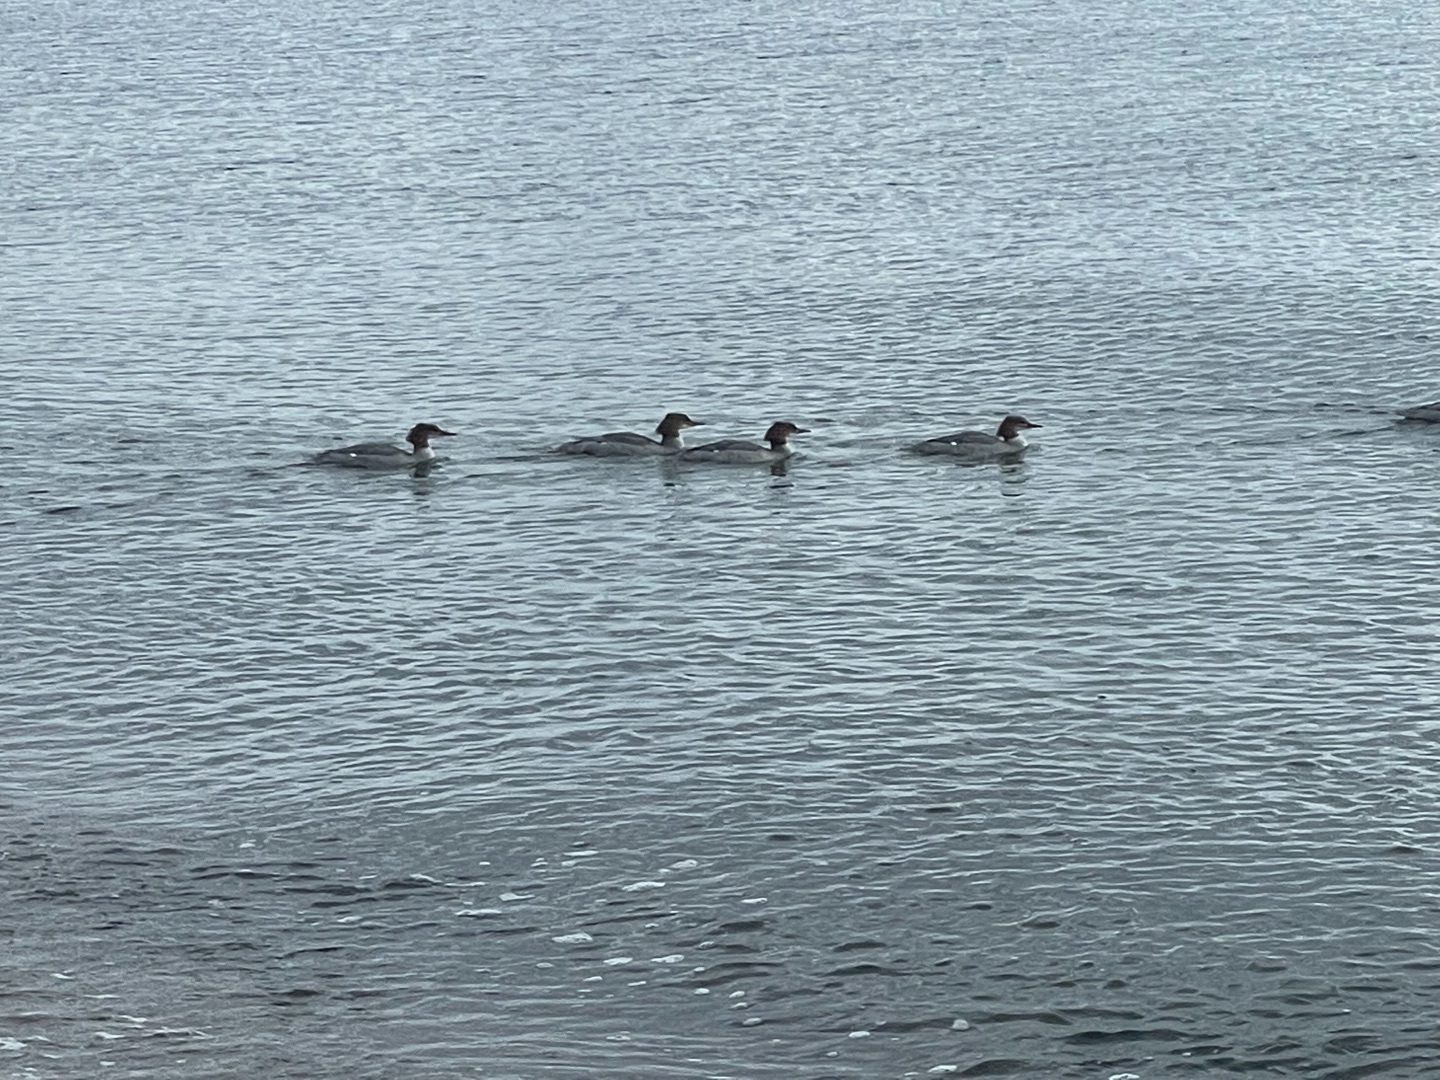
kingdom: Animalia
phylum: Chordata
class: Aves
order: Anseriformes
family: Anatidae
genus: Mergus
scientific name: Mergus merganser
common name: Stor skallesluger
